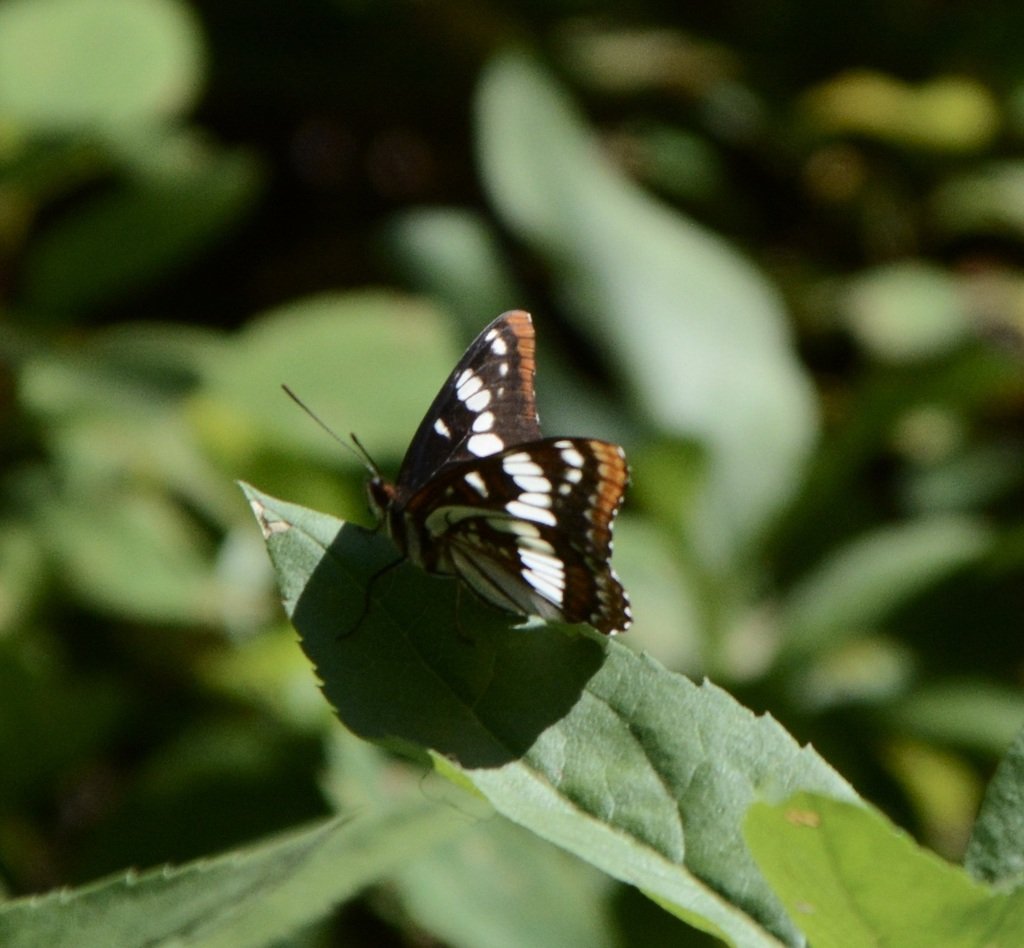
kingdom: Animalia
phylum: Arthropoda
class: Insecta
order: Lepidoptera
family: Nymphalidae
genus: Limenitis
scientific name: Limenitis lorquini
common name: Lorquin's Admiral
